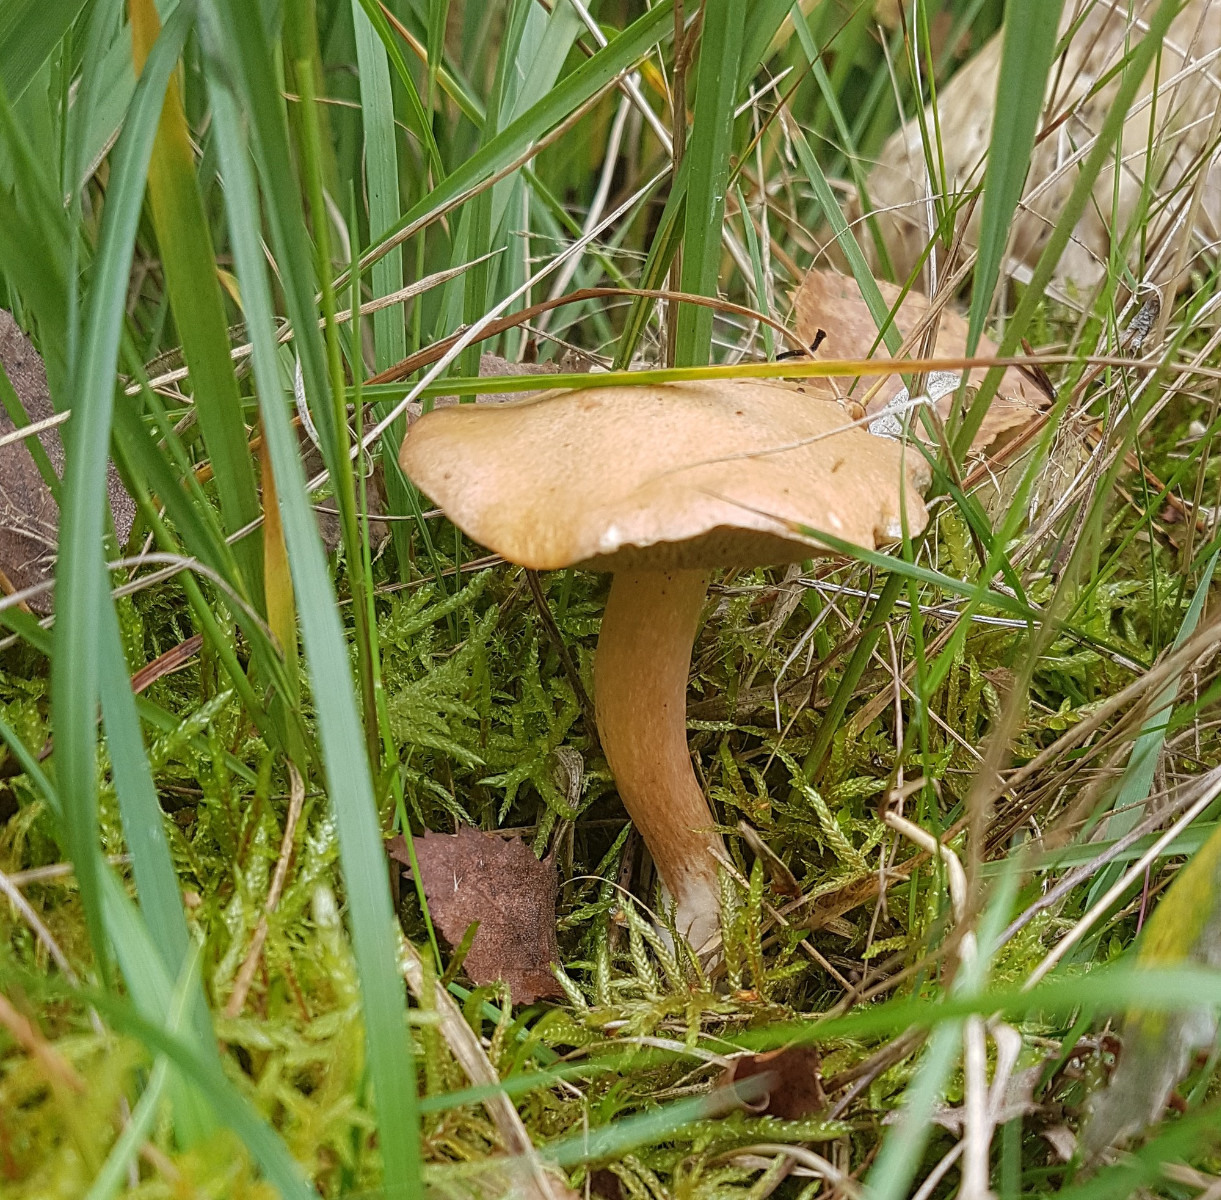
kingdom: Fungi
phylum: Basidiomycota
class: Agaricomycetes
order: Boletales
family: Suillaceae
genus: Suillus
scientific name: Suillus bovinus
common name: grovporet slimrørhat
